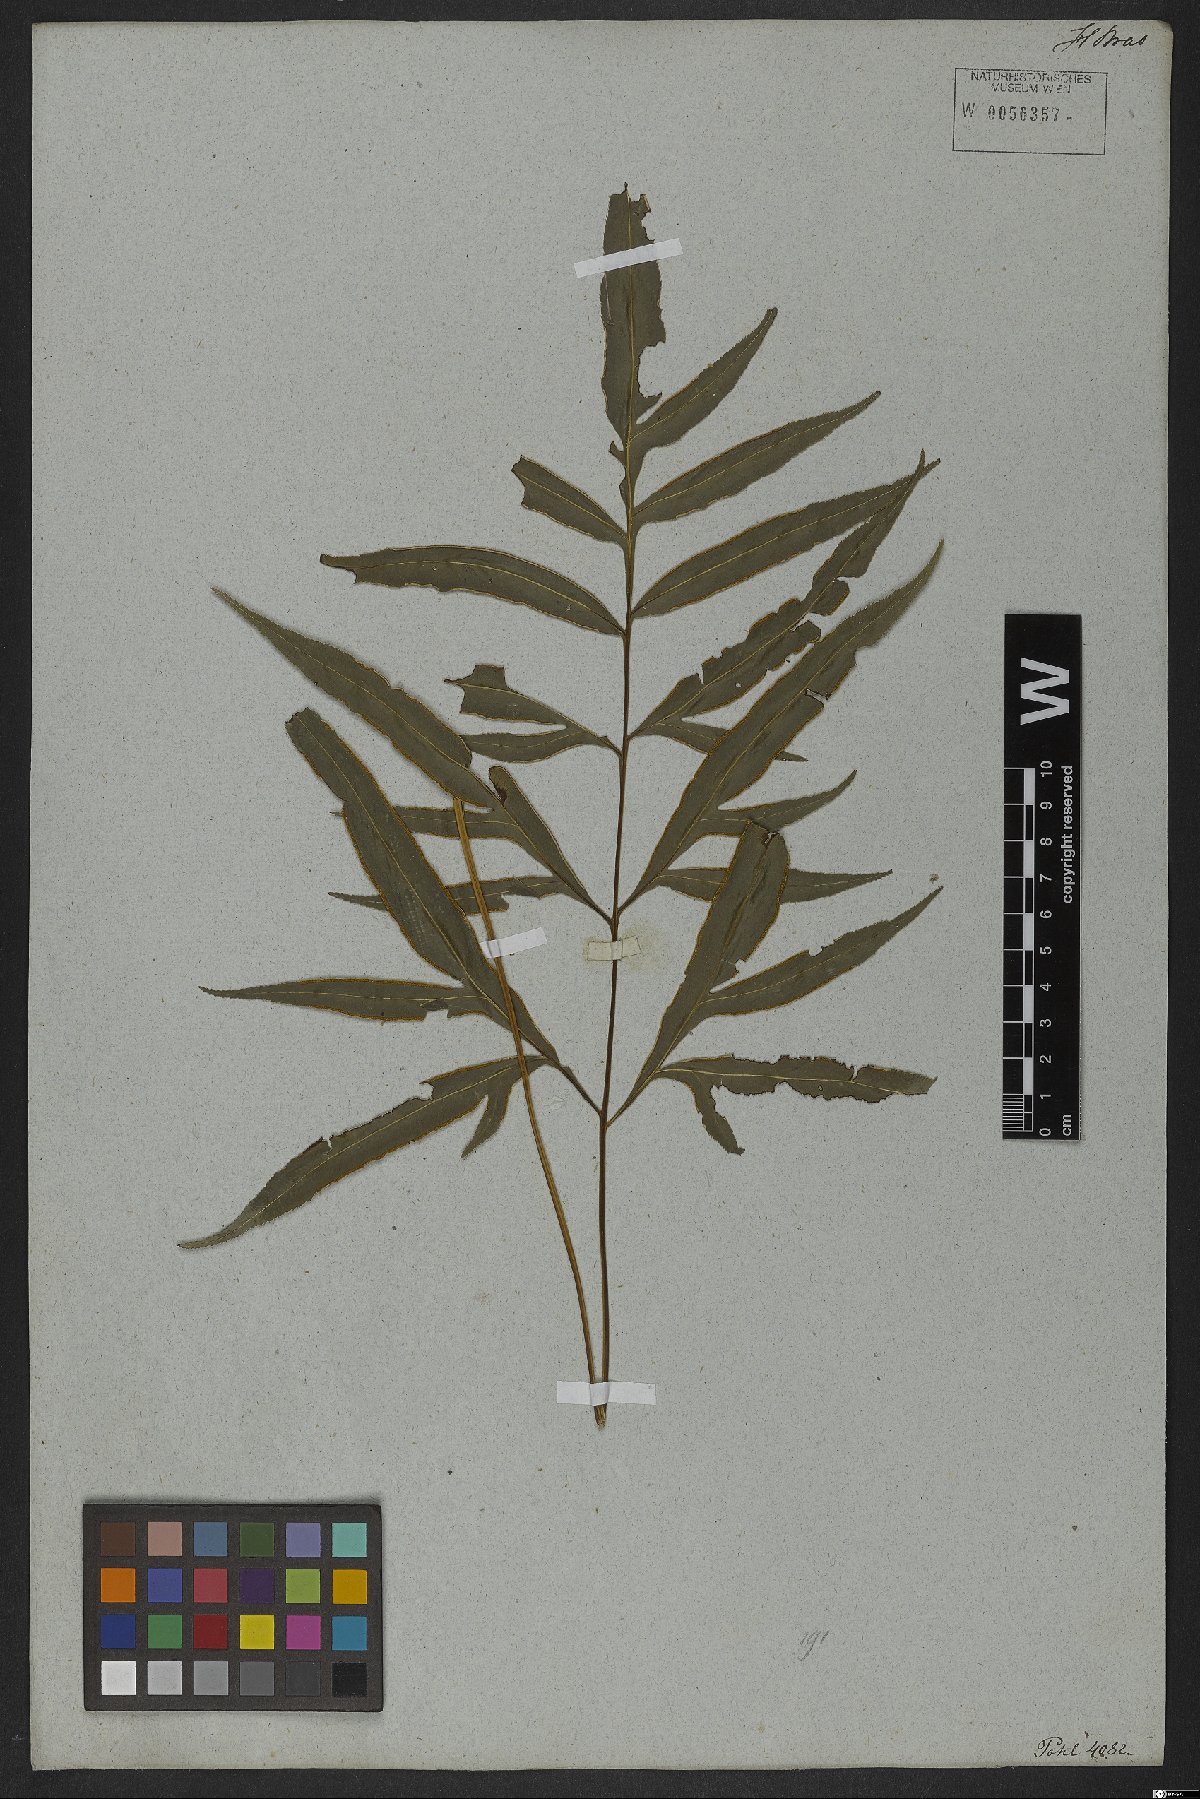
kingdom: Plantae
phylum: Tracheophyta
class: Polypodiopsida
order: Polypodiales
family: Pteridaceae
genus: Pteris
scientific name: Pteris denticulata
